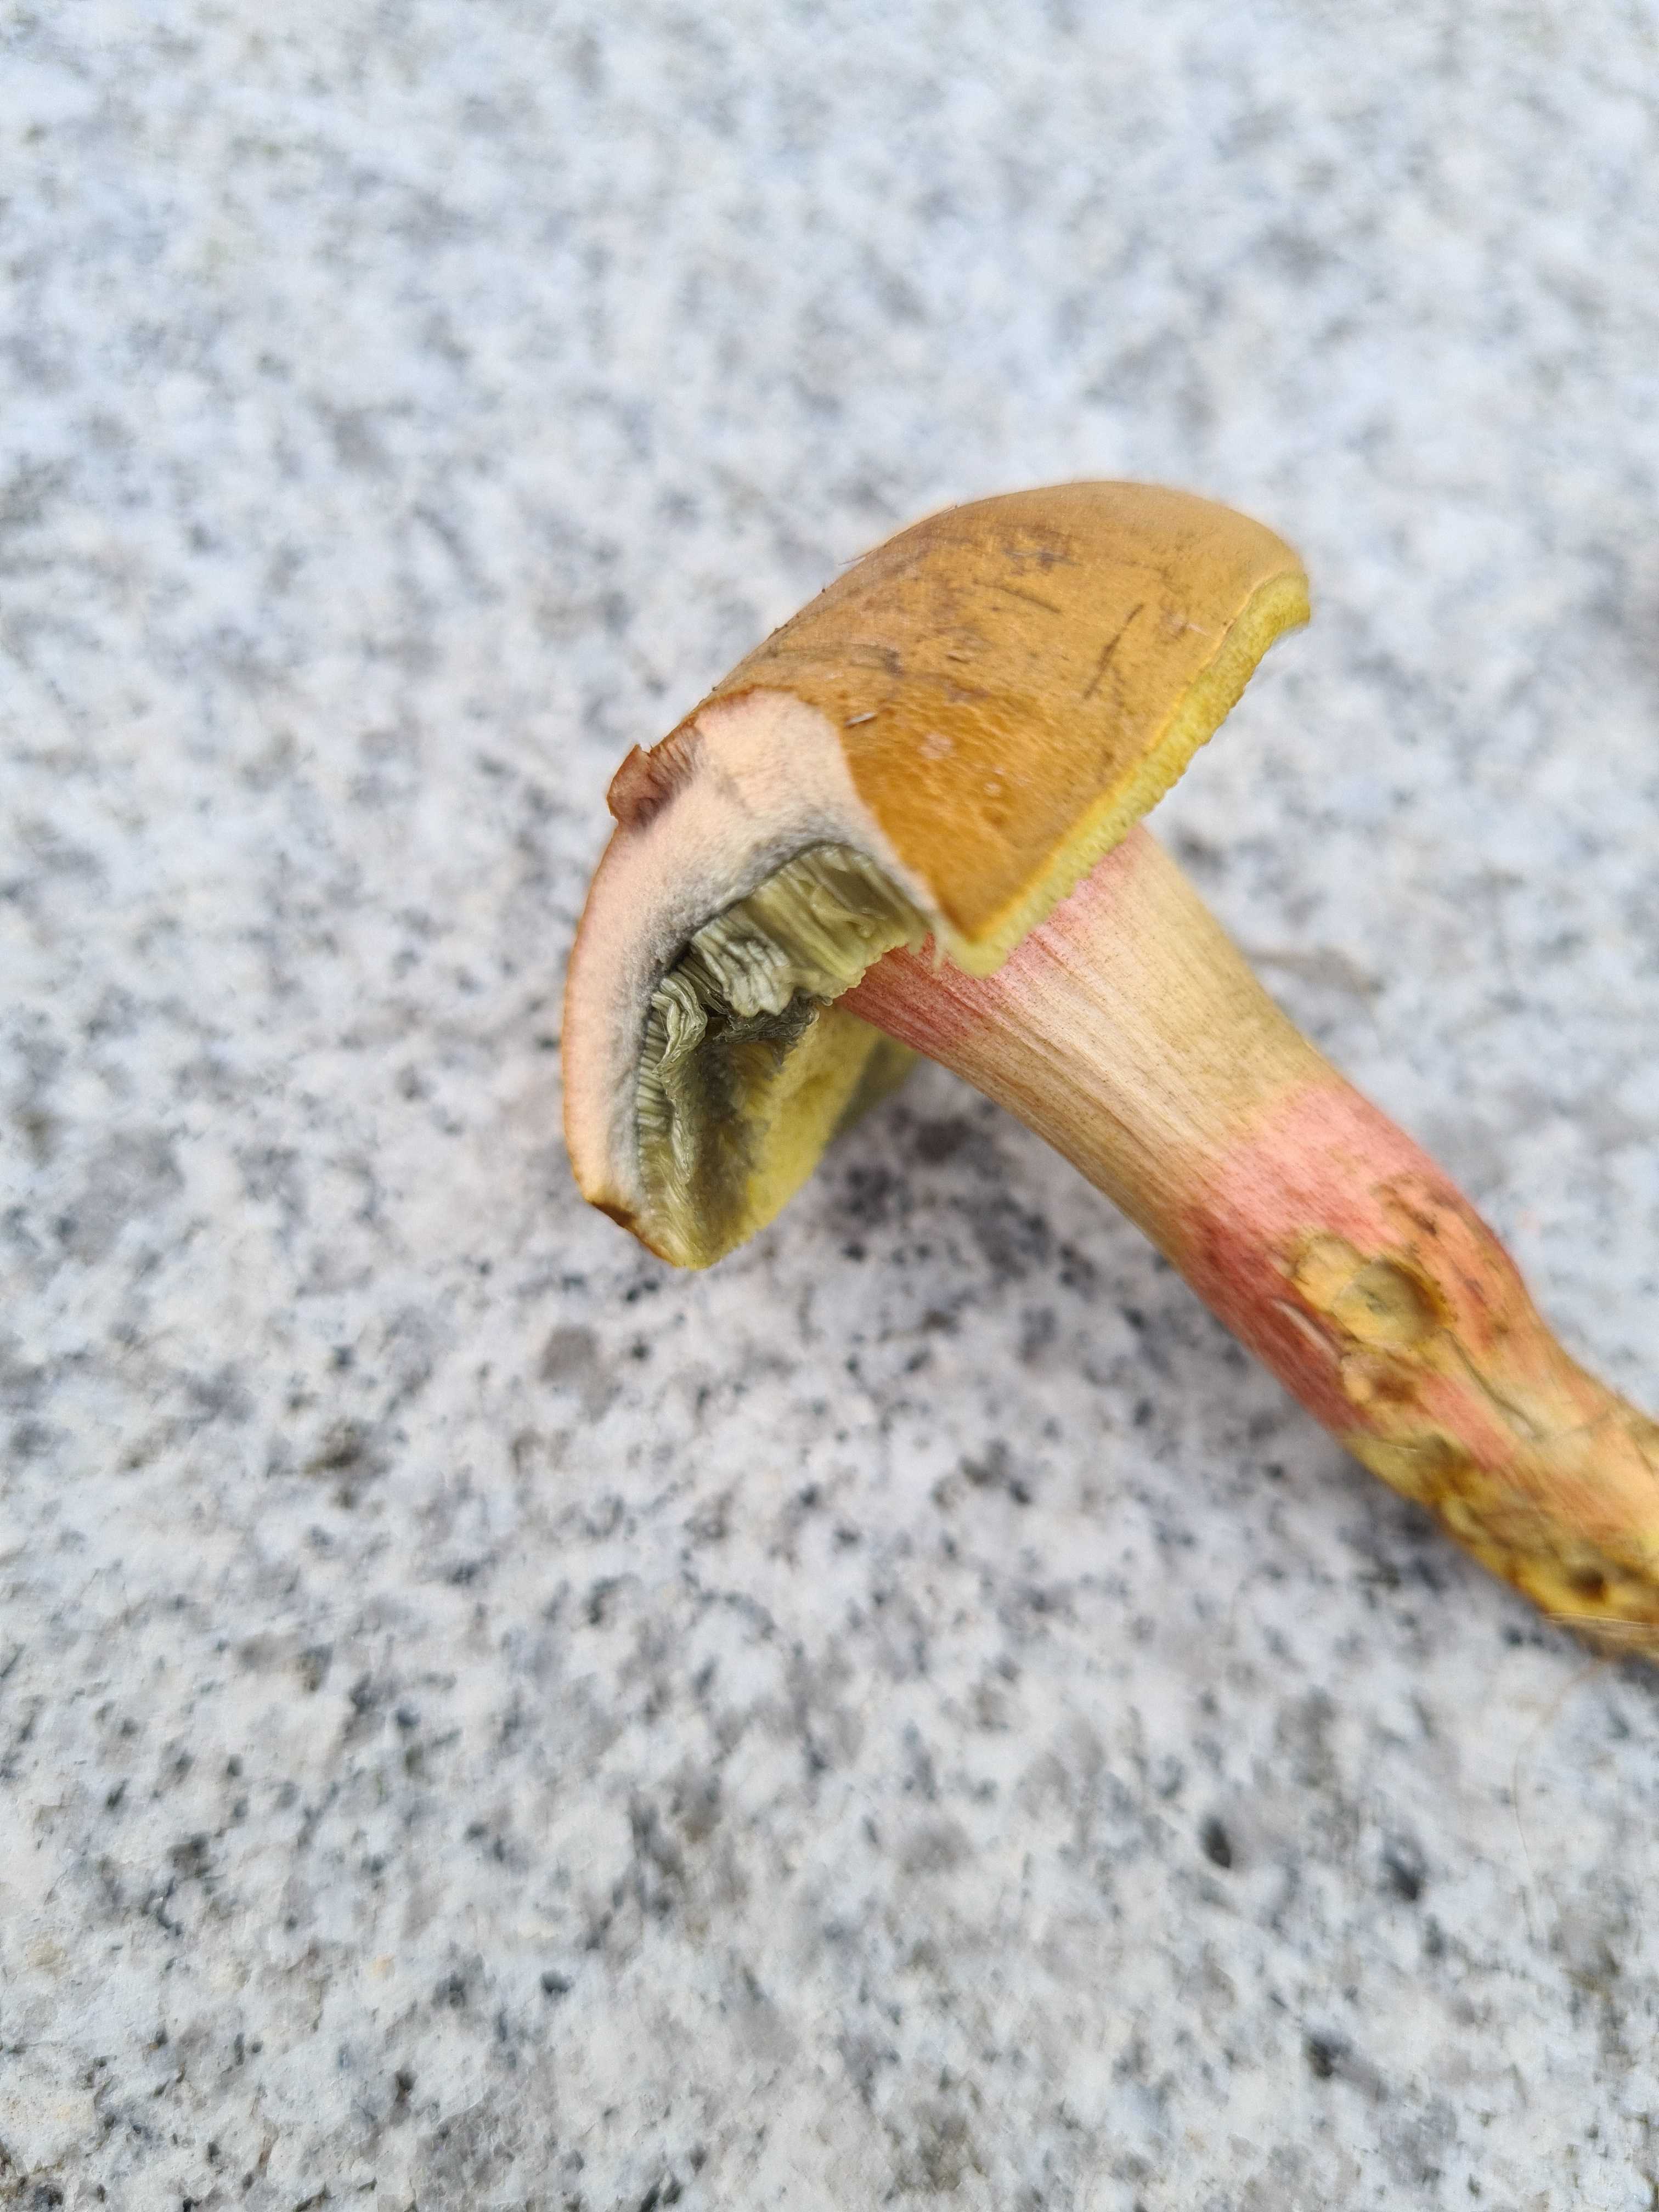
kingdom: Fungi
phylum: Basidiomycota
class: Agaricomycetes
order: Boletales
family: Boletaceae
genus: Hortiboletus
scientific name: Hortiboletus bubalinus
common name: aurora-rørhat
